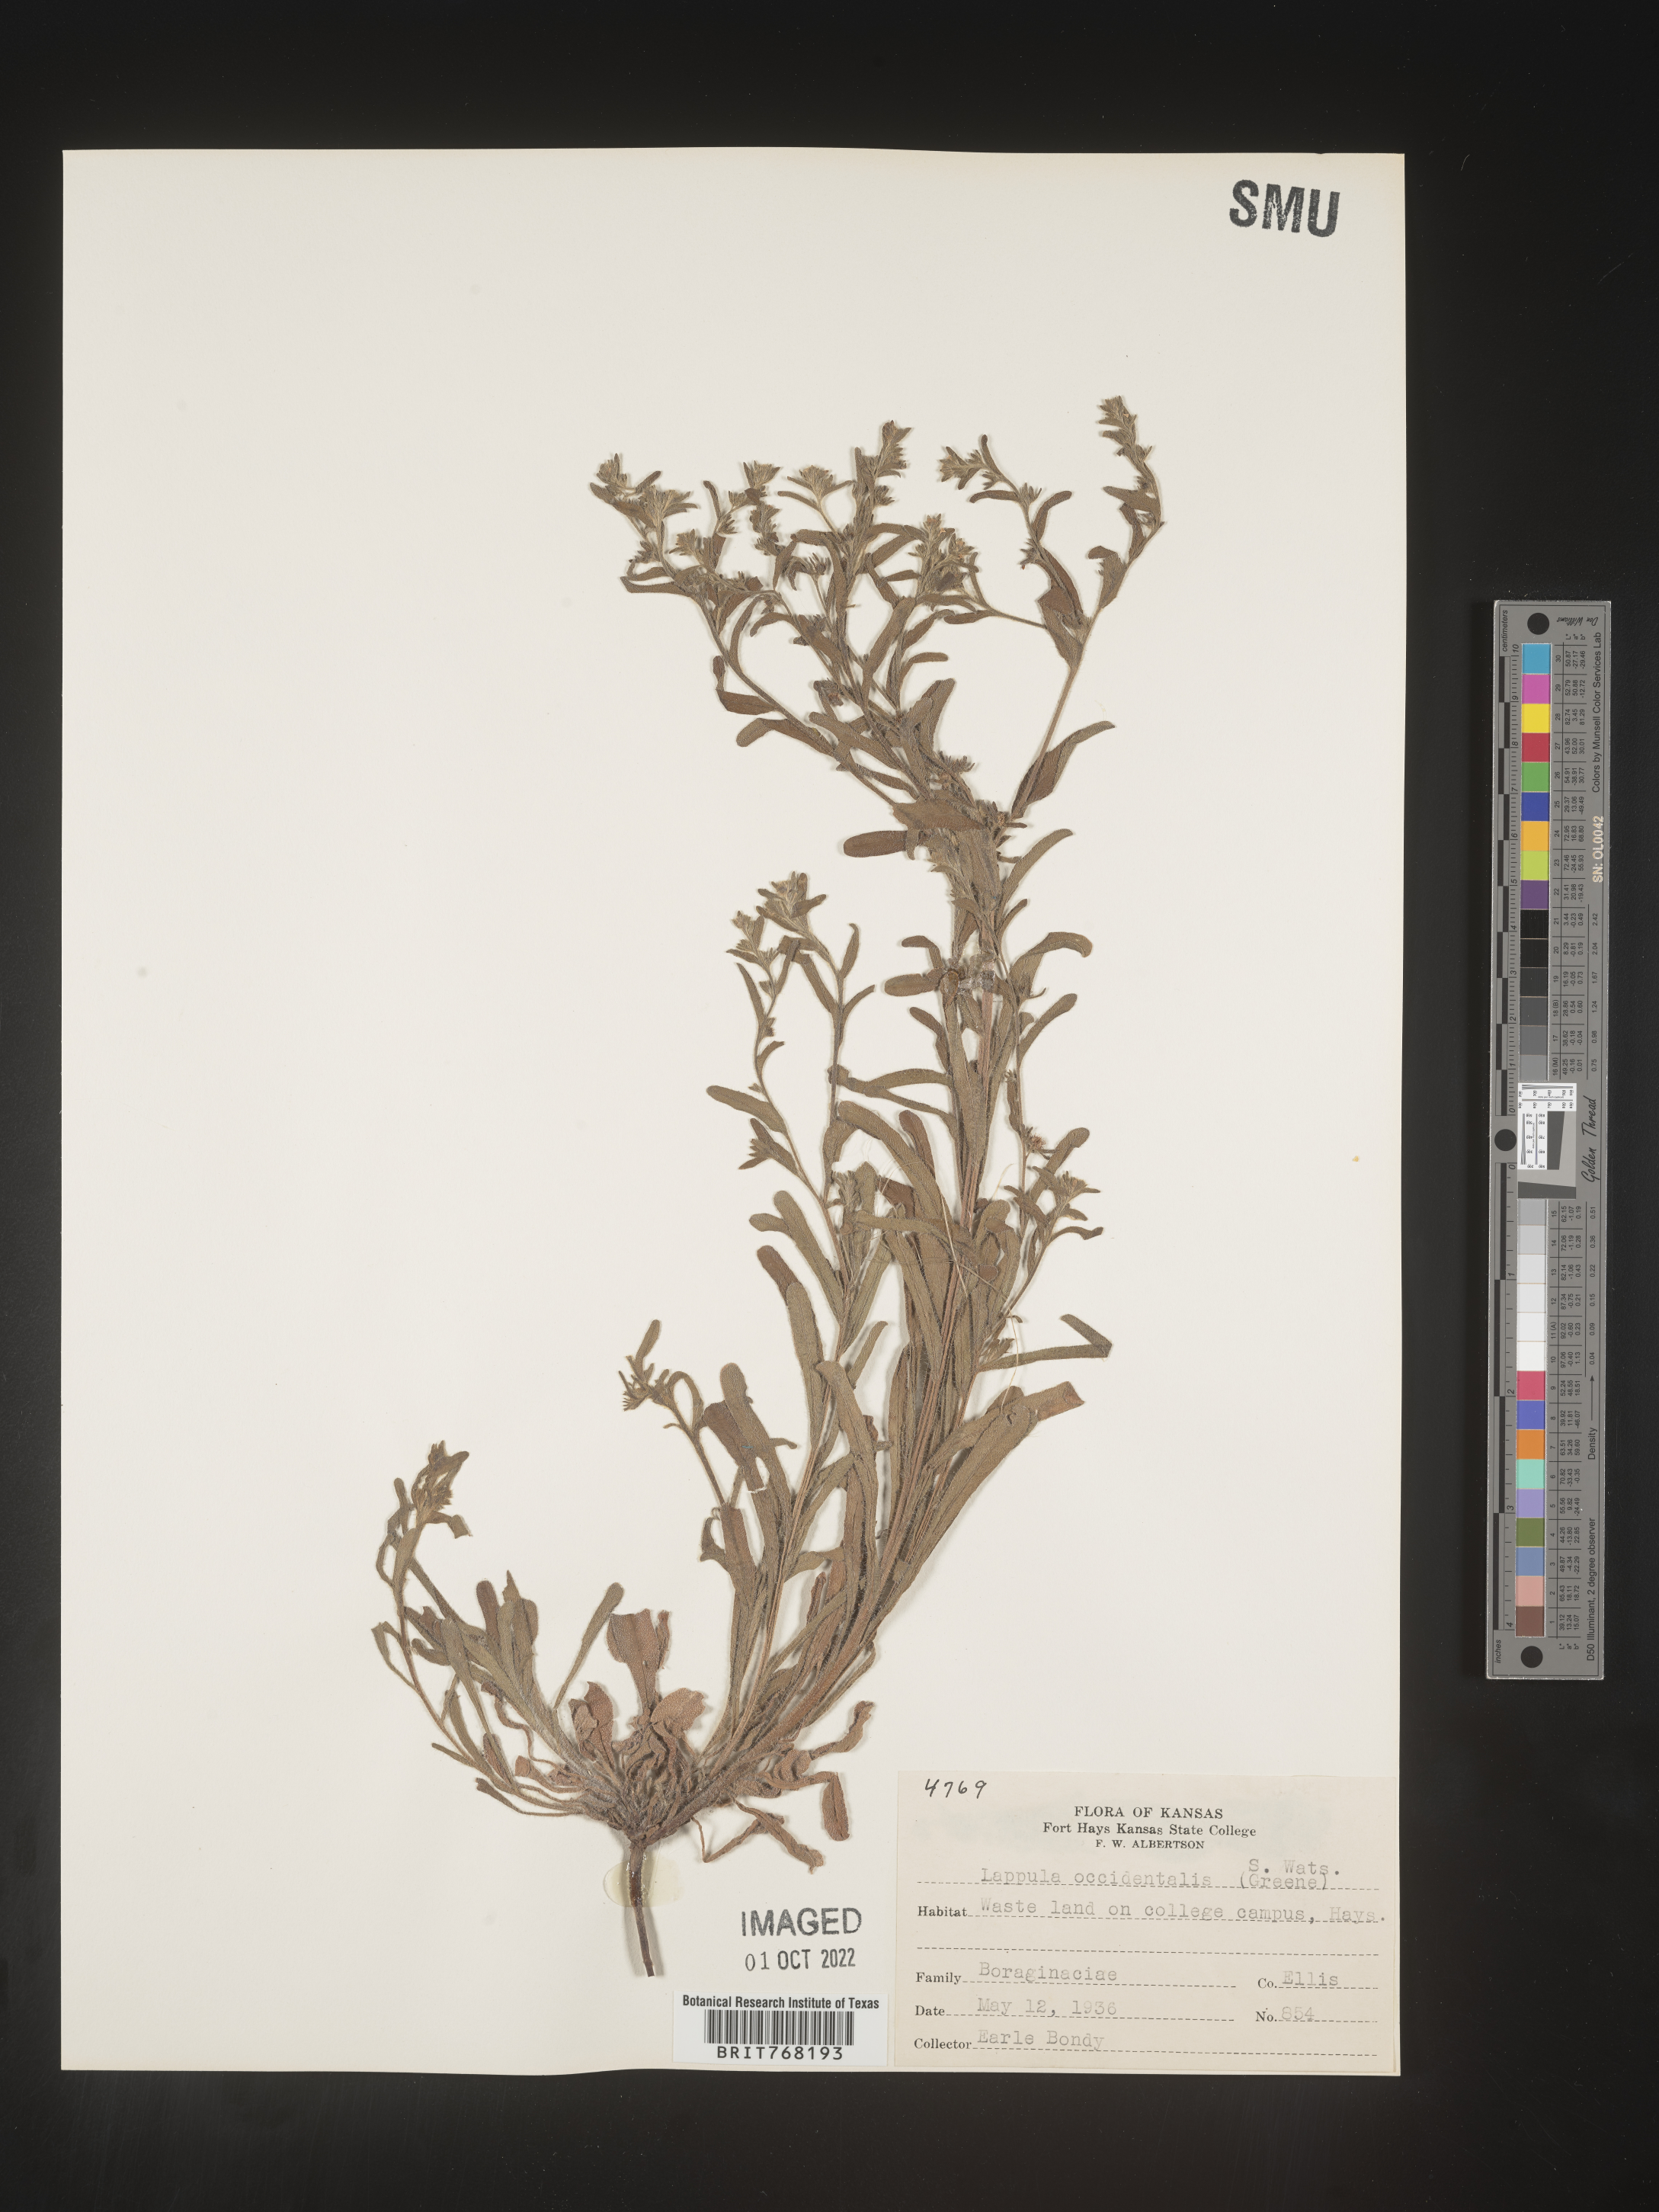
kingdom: Plantae
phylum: Tracheophyta
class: Magnoliopsida
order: Boraginales
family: Boraginaceae
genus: Lappula
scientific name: Lappula
